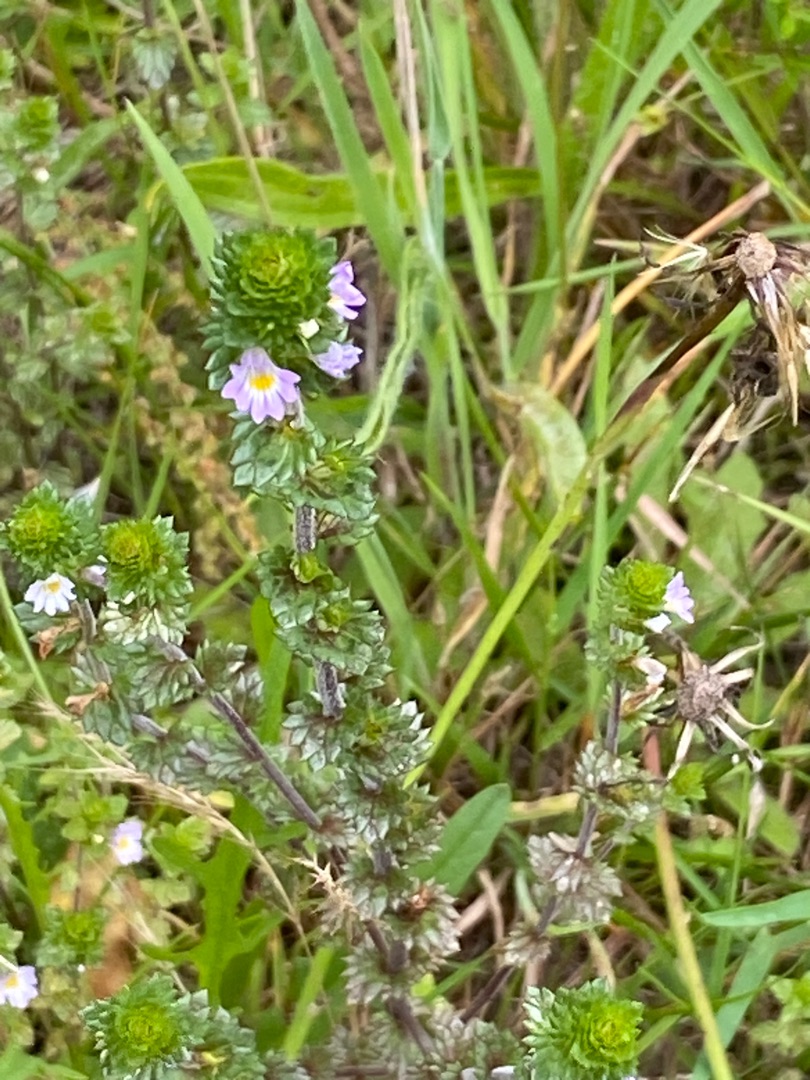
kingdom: Plantae
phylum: Tracheophyta
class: Magnoliopsida
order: Lamiales
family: Orobanchaceae
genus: Euphrasia
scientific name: Euphrasia nemorosa
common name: Kort øjentrøst
